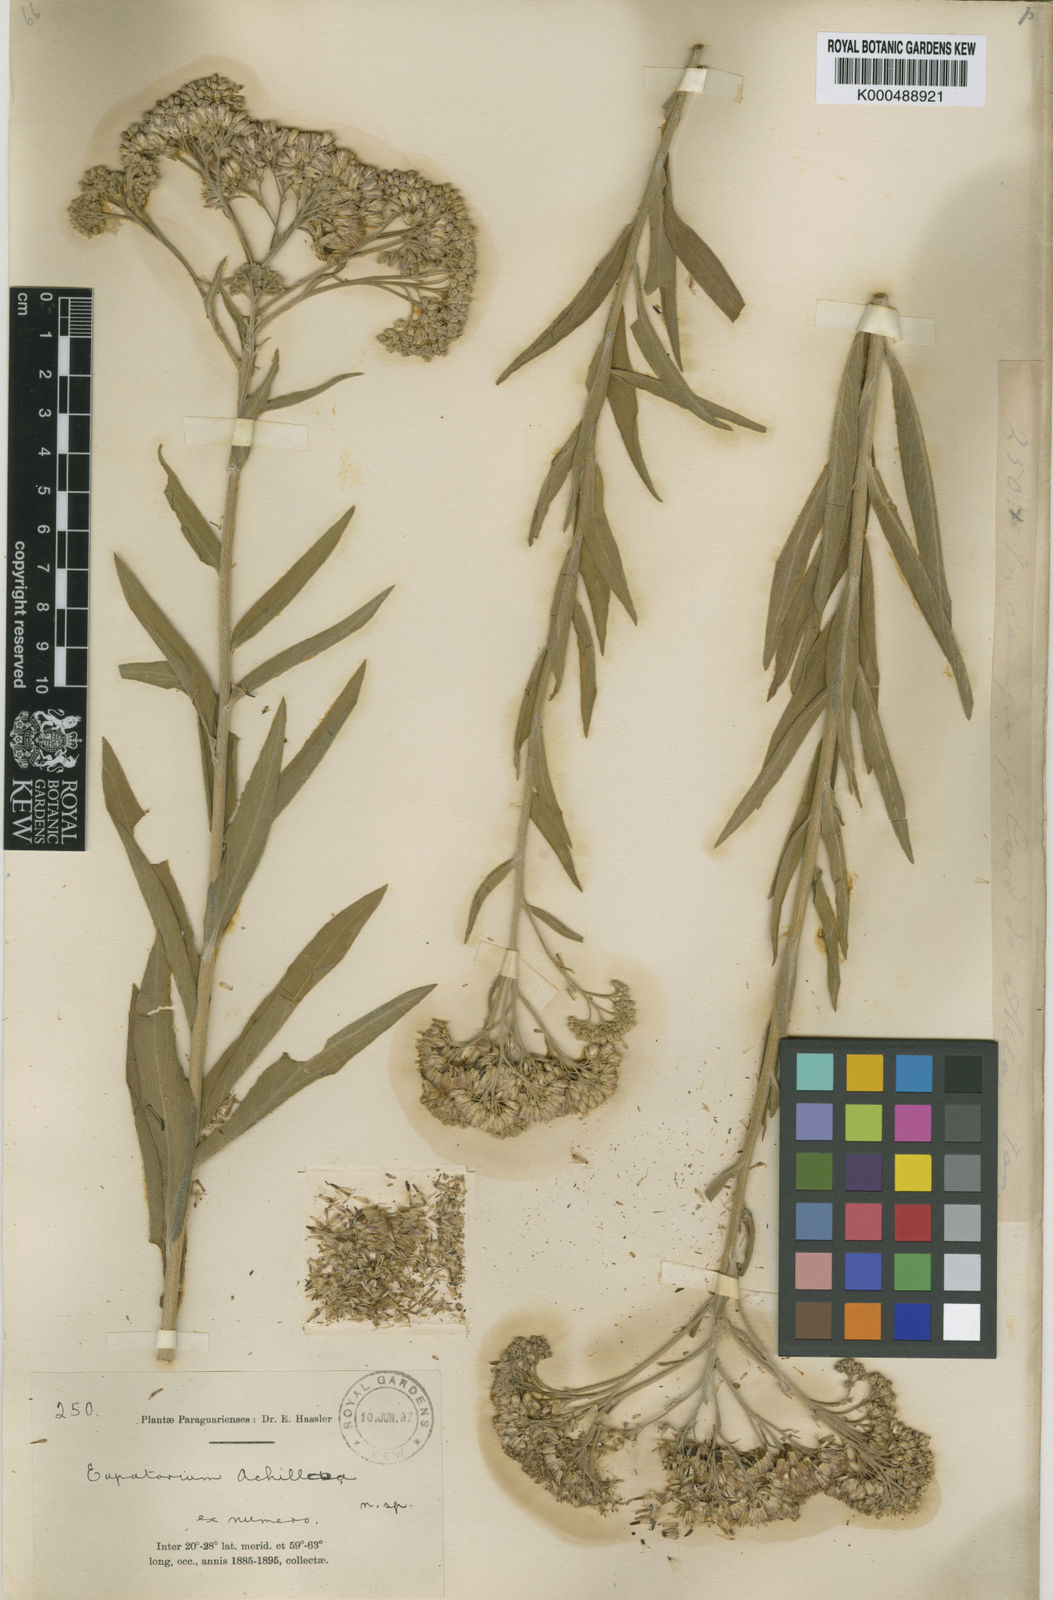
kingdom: Plantae
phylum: Tracheophyta
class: Magnoliopsida
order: Asterales
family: Asteraceae
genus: Disynaphia
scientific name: Disynaphia
